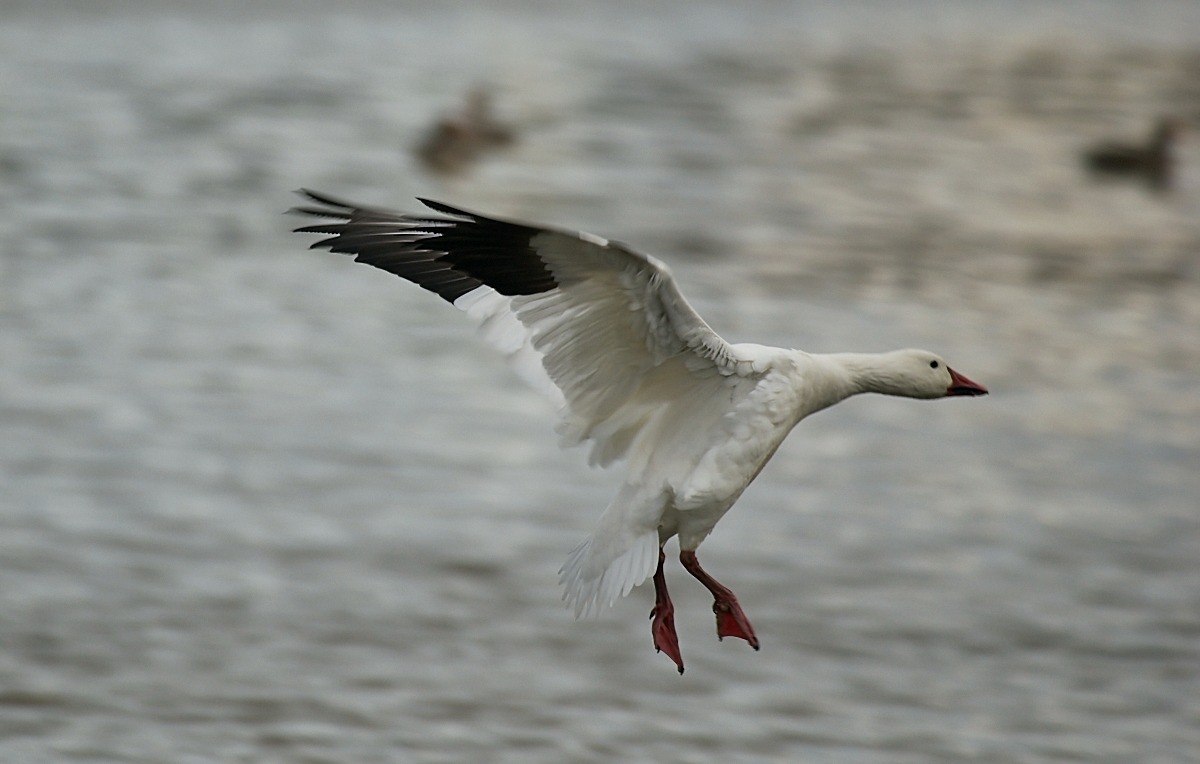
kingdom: Animalia
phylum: Chordata
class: Aves
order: Anseriformes
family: Anatidae
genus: Anser
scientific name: Anser caerulescens
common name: Snegås
